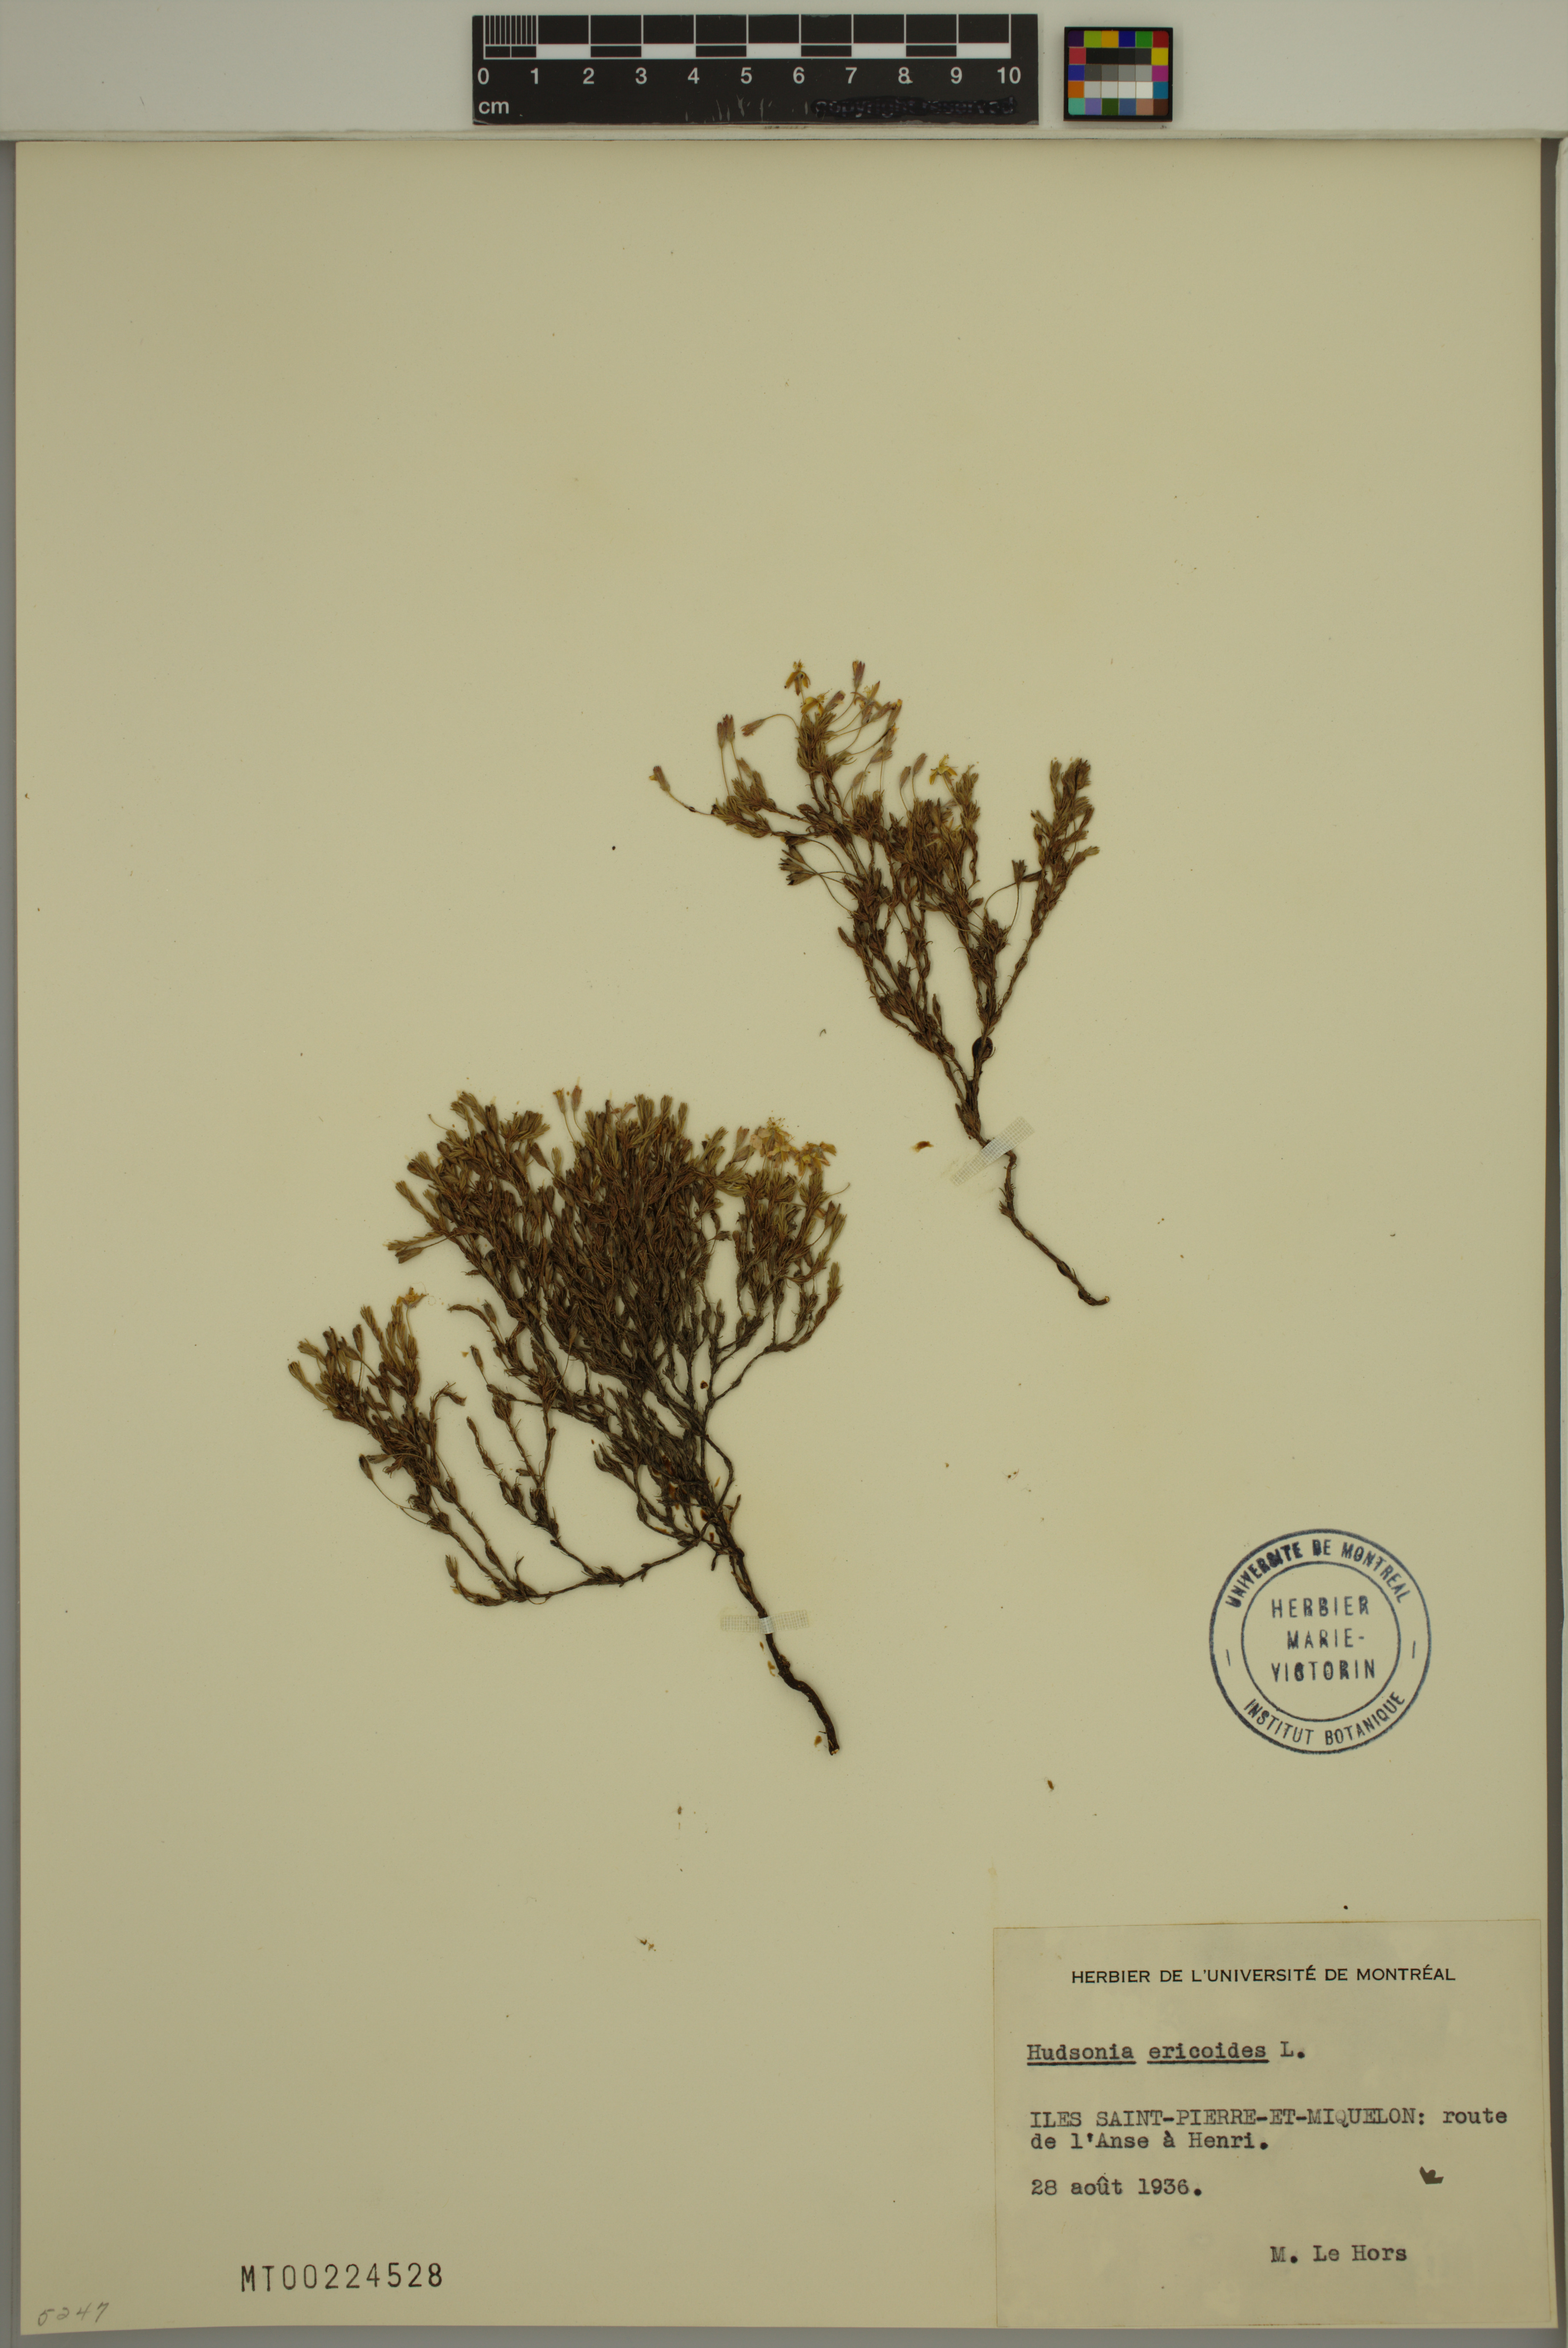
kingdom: Plantae
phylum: Tracheophyta
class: Magnoliopsida
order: Malvales
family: Cistaceae
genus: Hudsonia
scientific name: Hudsonia ericoides
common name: Golden-heather
